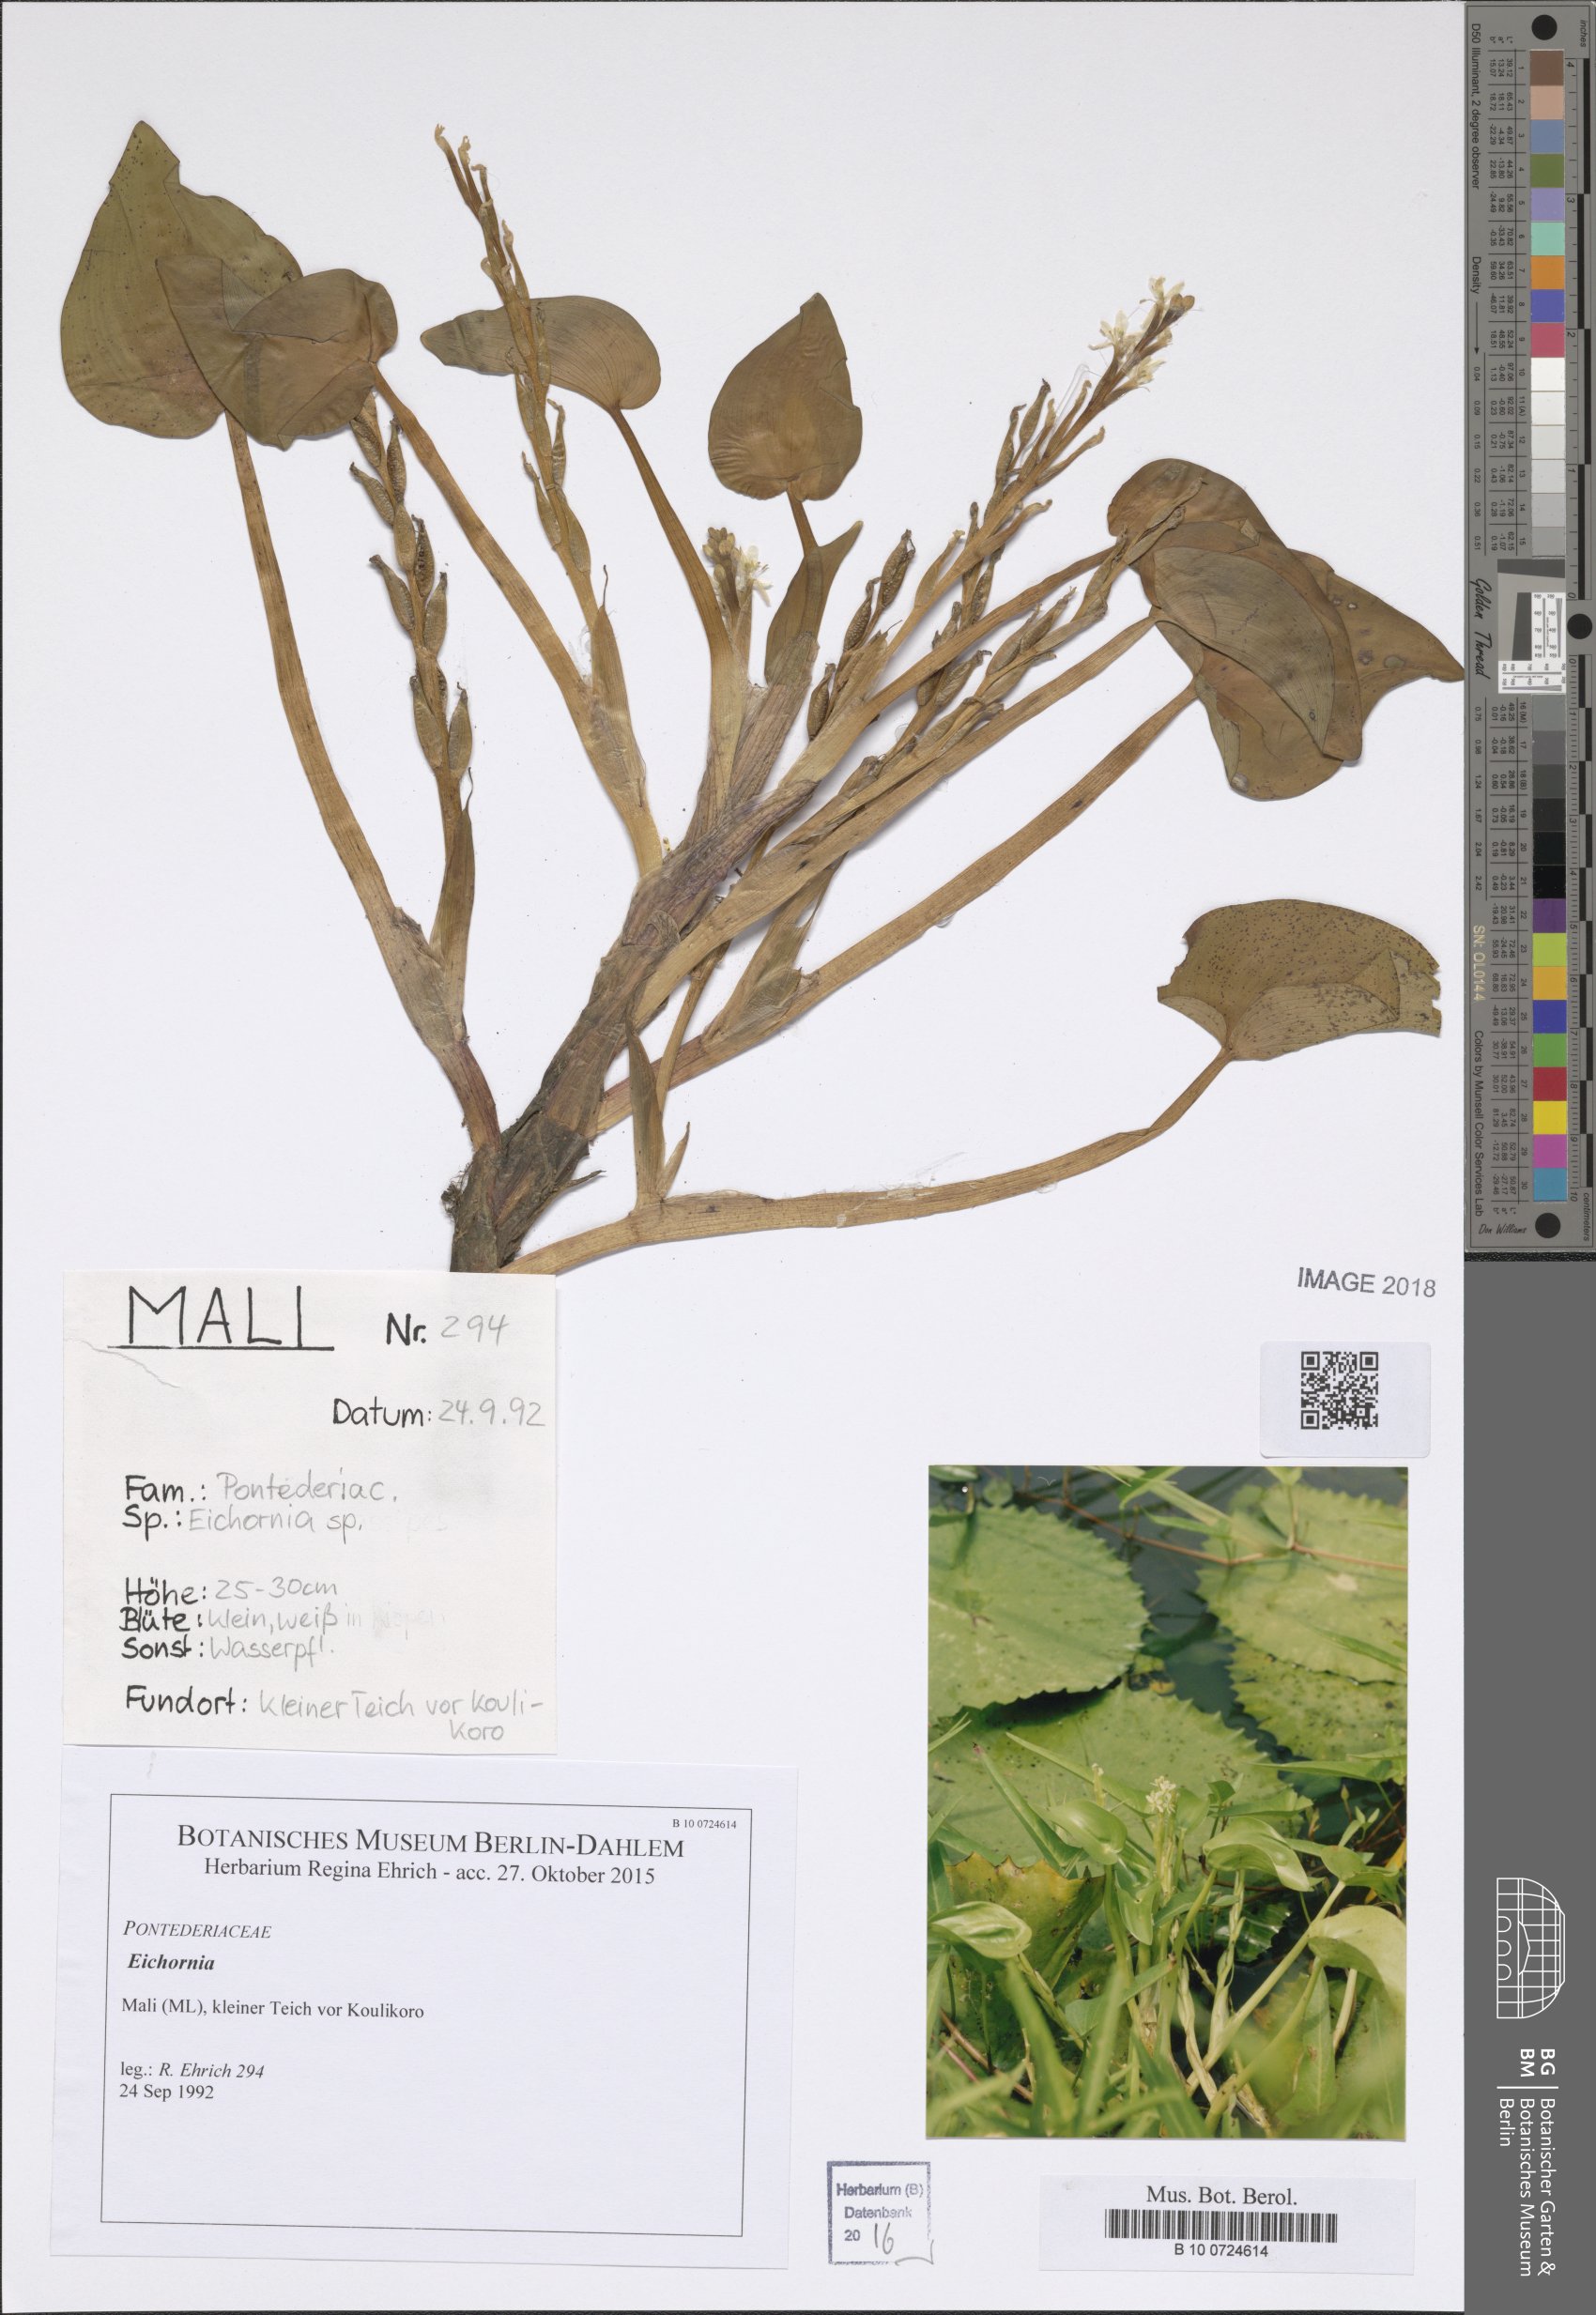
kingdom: Plantae
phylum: Tracheophyta
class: Liliopsida
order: Commelinales
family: Pontederiaceae
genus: Pontederia
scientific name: Pontederia
